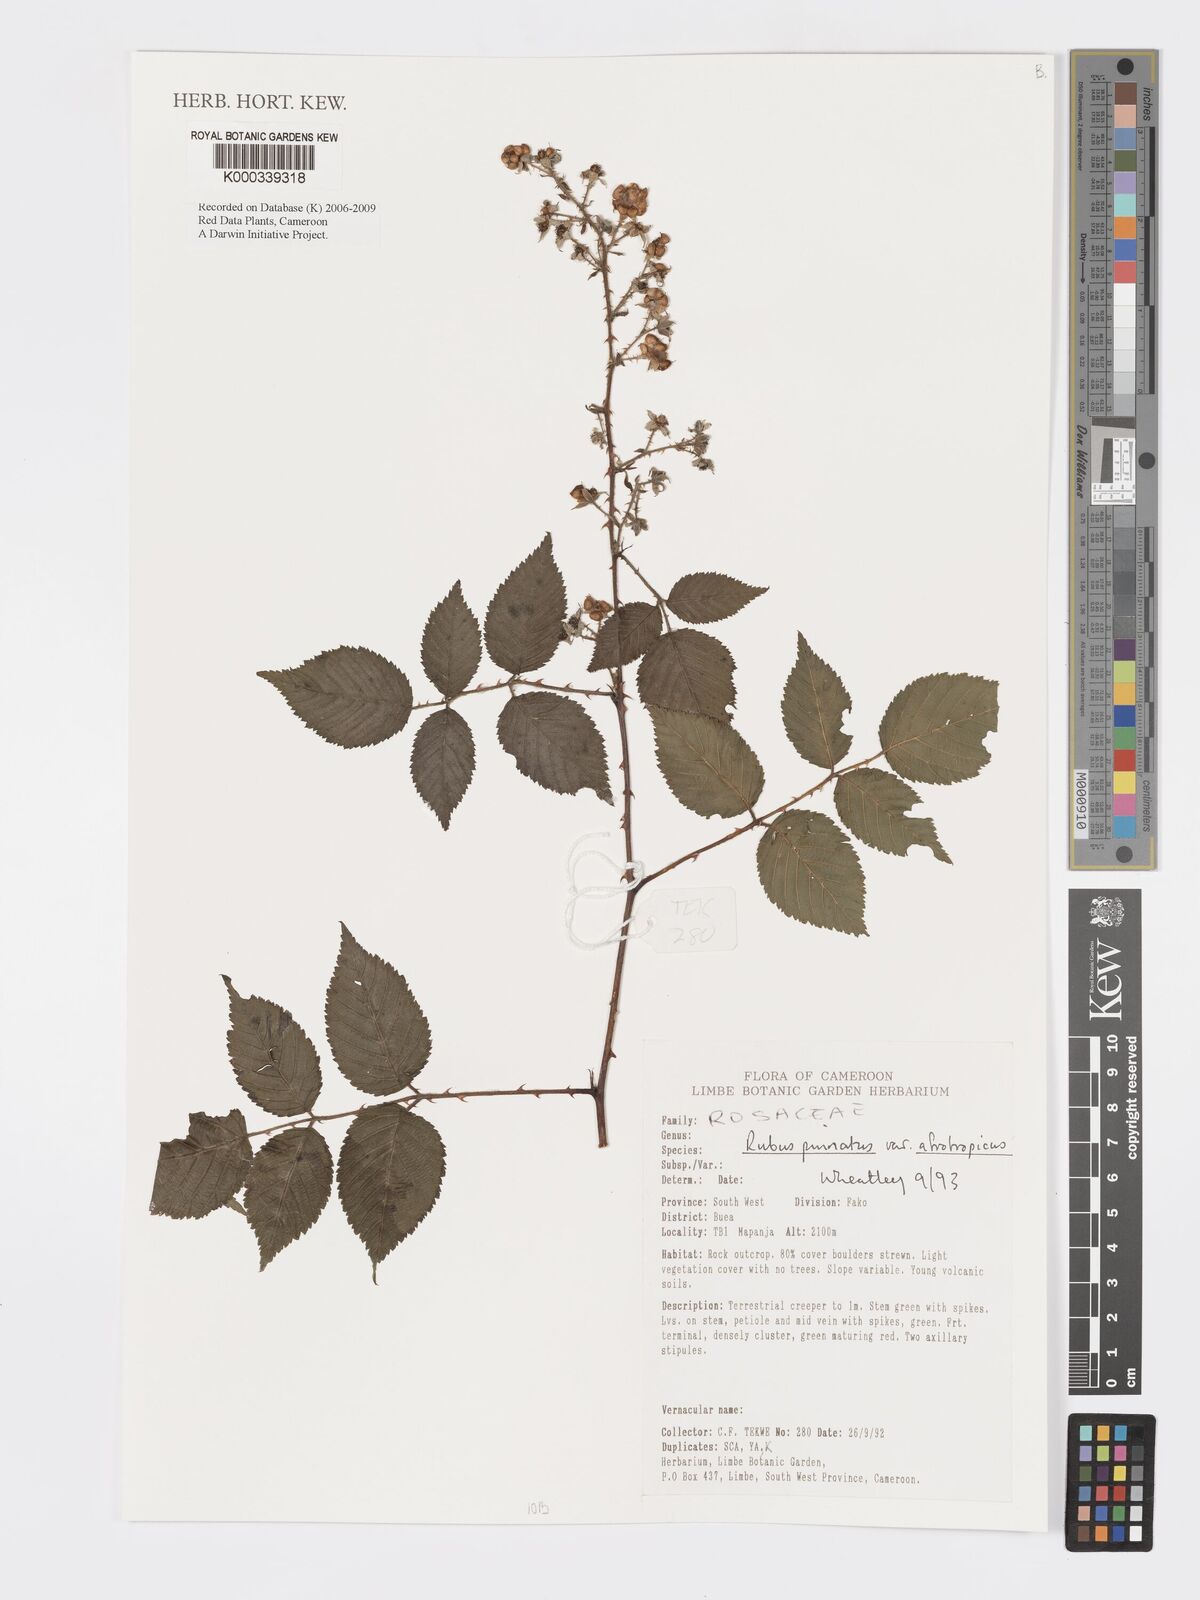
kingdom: Plantae
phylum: Tracheophyta
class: Magnoliopsida
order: Rosales
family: Rosaceae
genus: Rubus
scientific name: Rubus pinnatus
